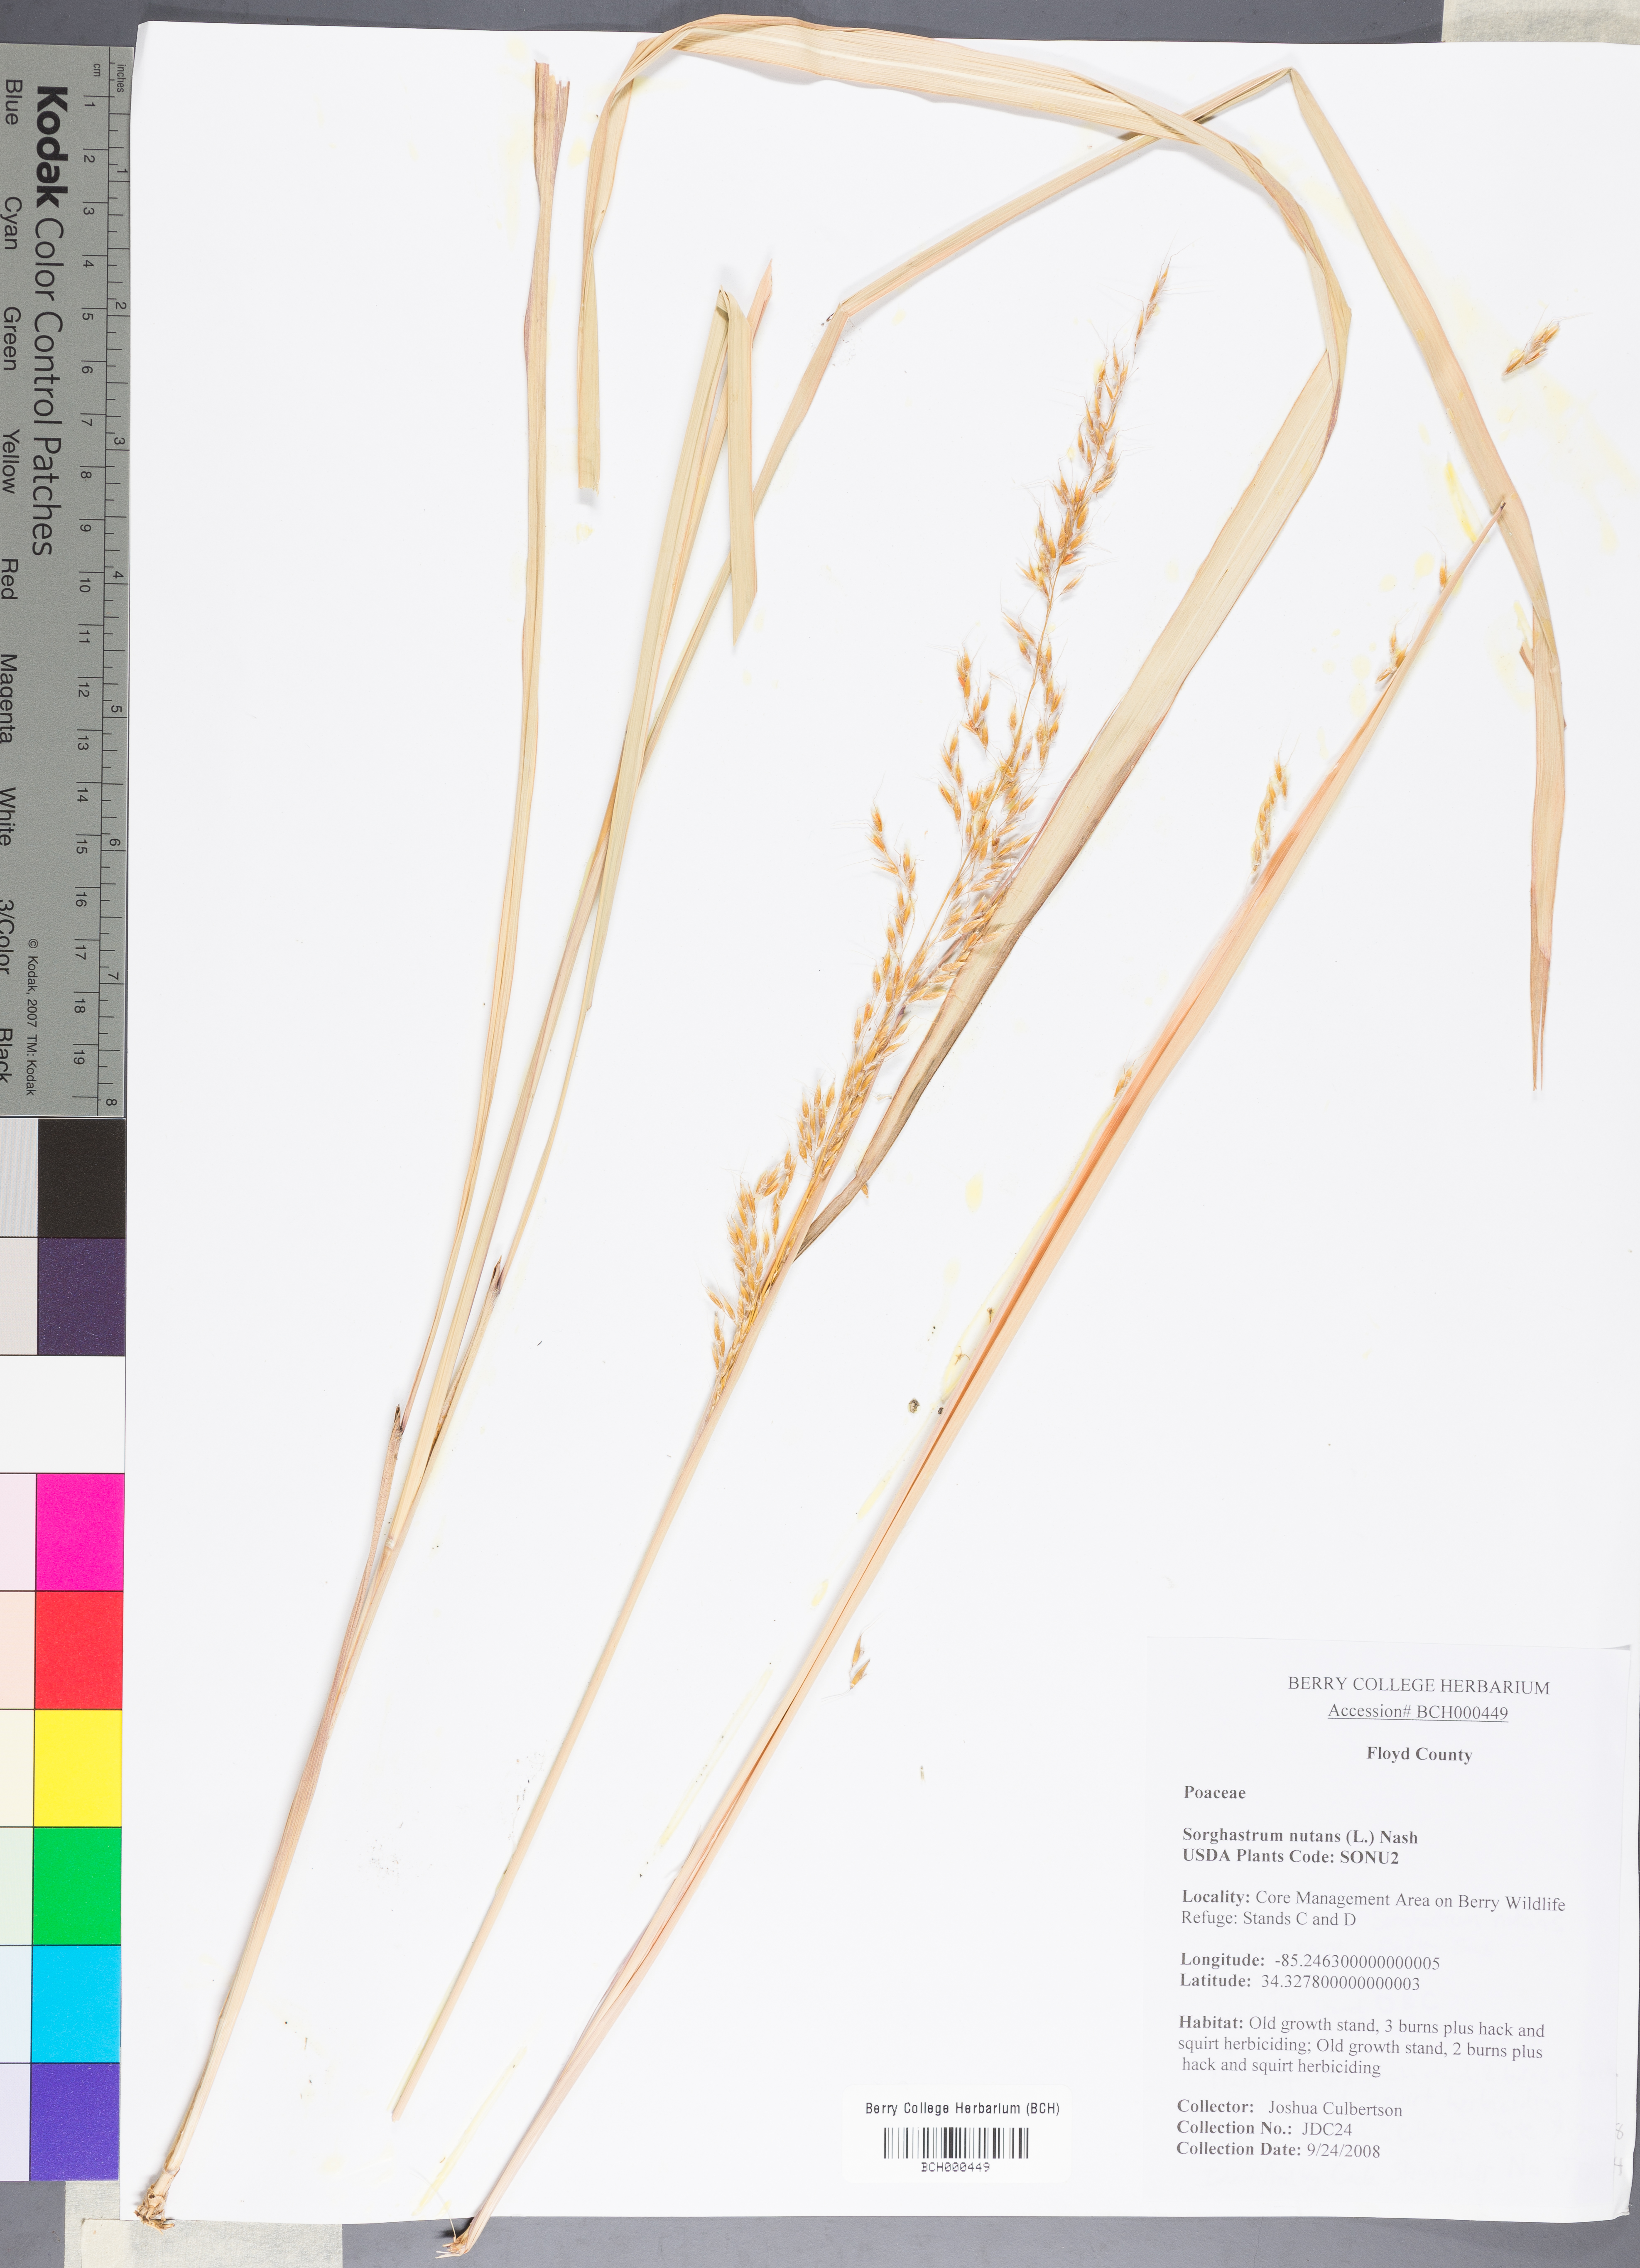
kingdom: Plantae
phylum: Tracheophyta
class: Liliopsida
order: Poales
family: Poaceae
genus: Sorghastrum
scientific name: Sorghastrum nutans
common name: Indian grass
